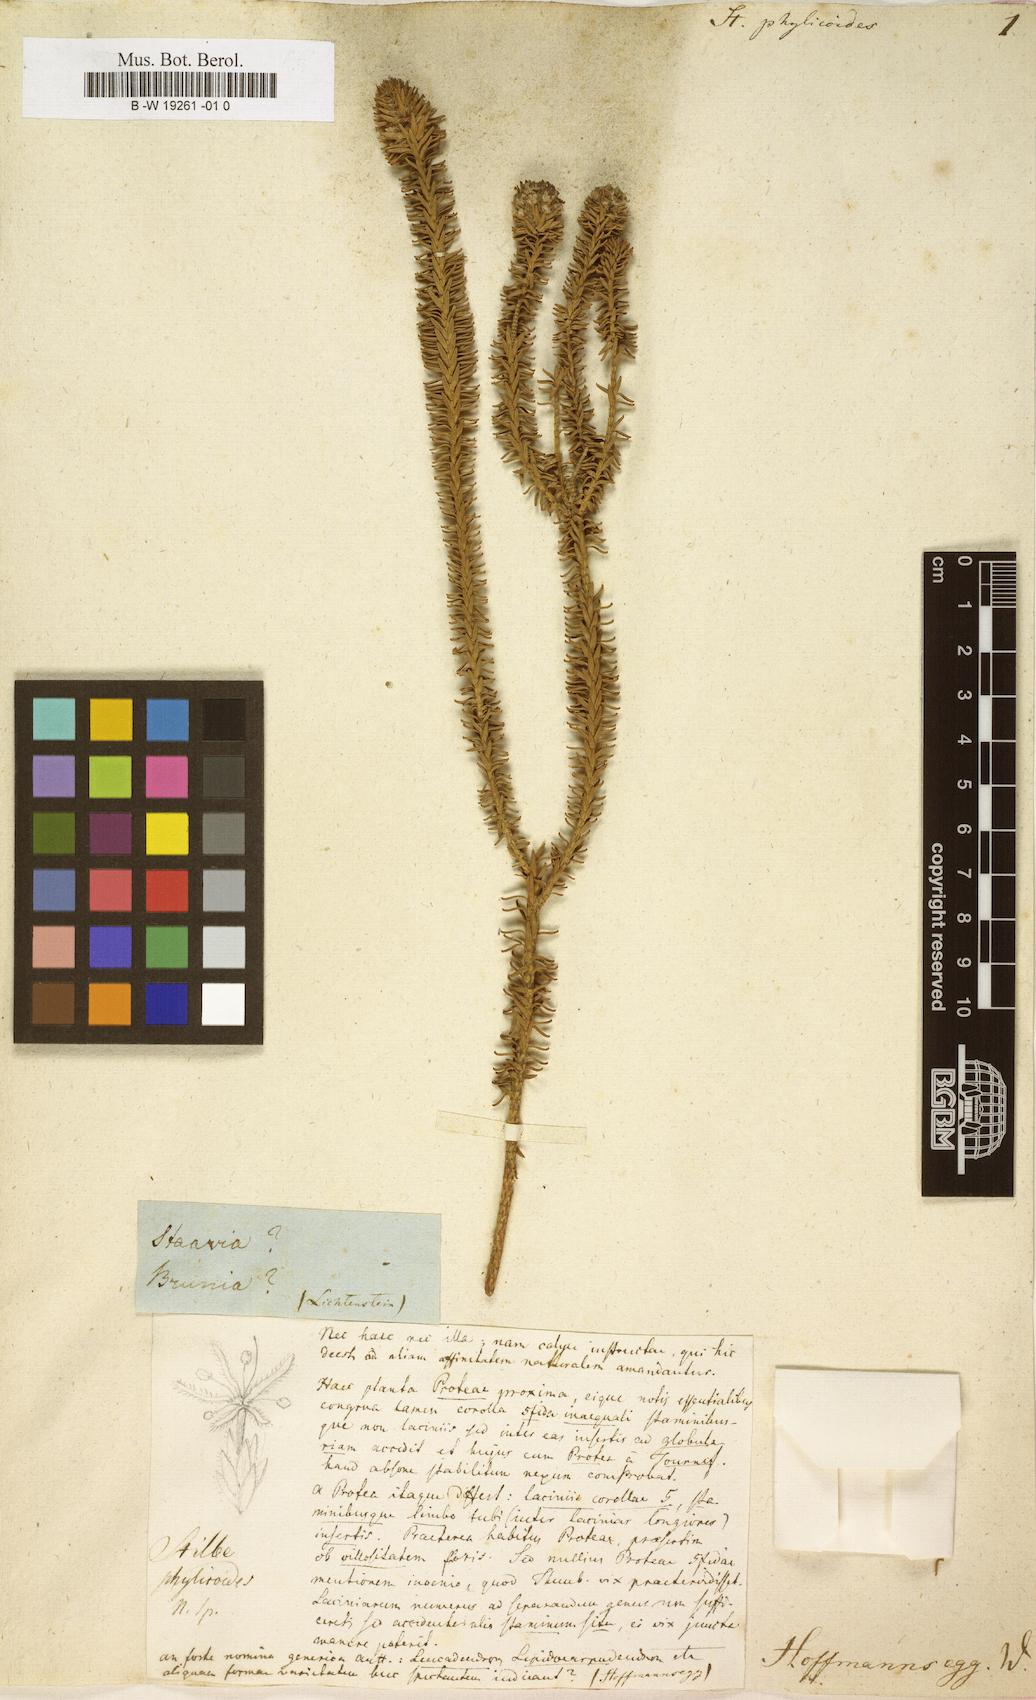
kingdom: Plantae
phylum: Tracheophyta
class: Magnoliopsida
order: Lamiales
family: Stilbaceae
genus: Stilbe
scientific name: Stilbe phylicoides
